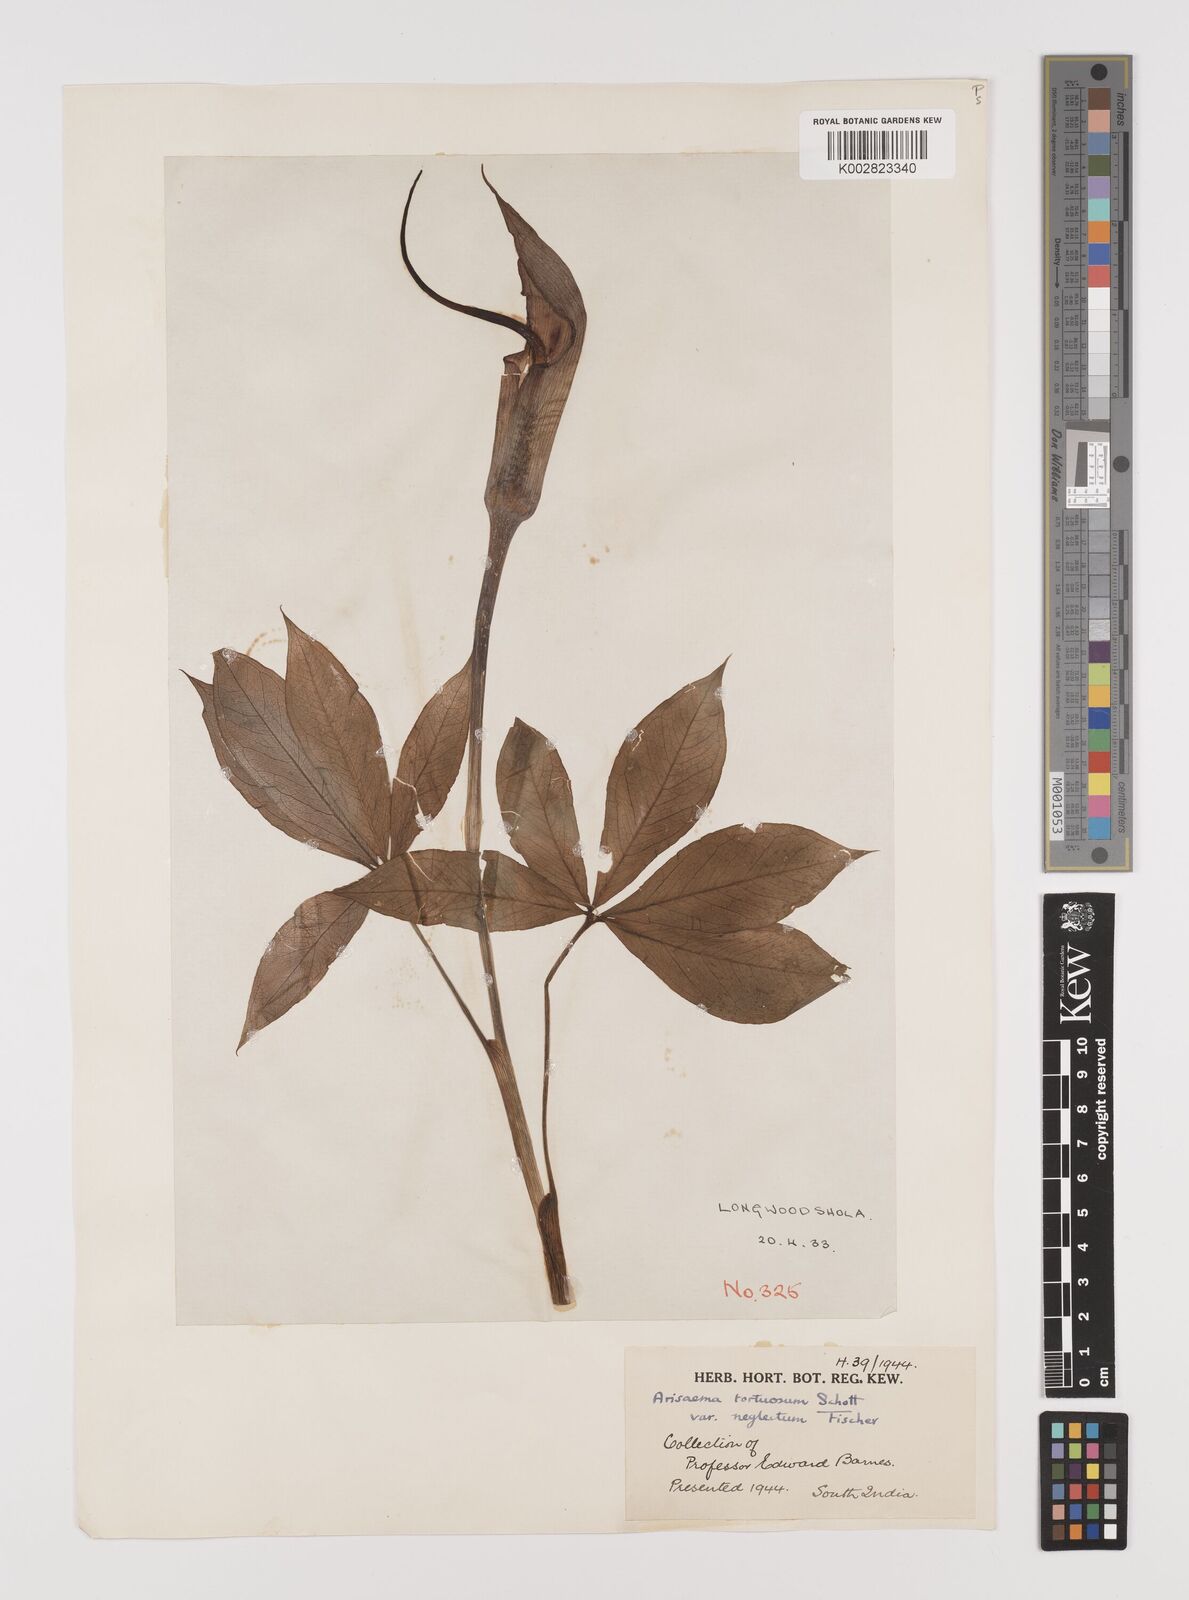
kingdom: Plantae
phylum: Tracheophyta
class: Liliopsida
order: Alismatales
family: Araceae
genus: Arisaema
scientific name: Arisaema tortuosum
